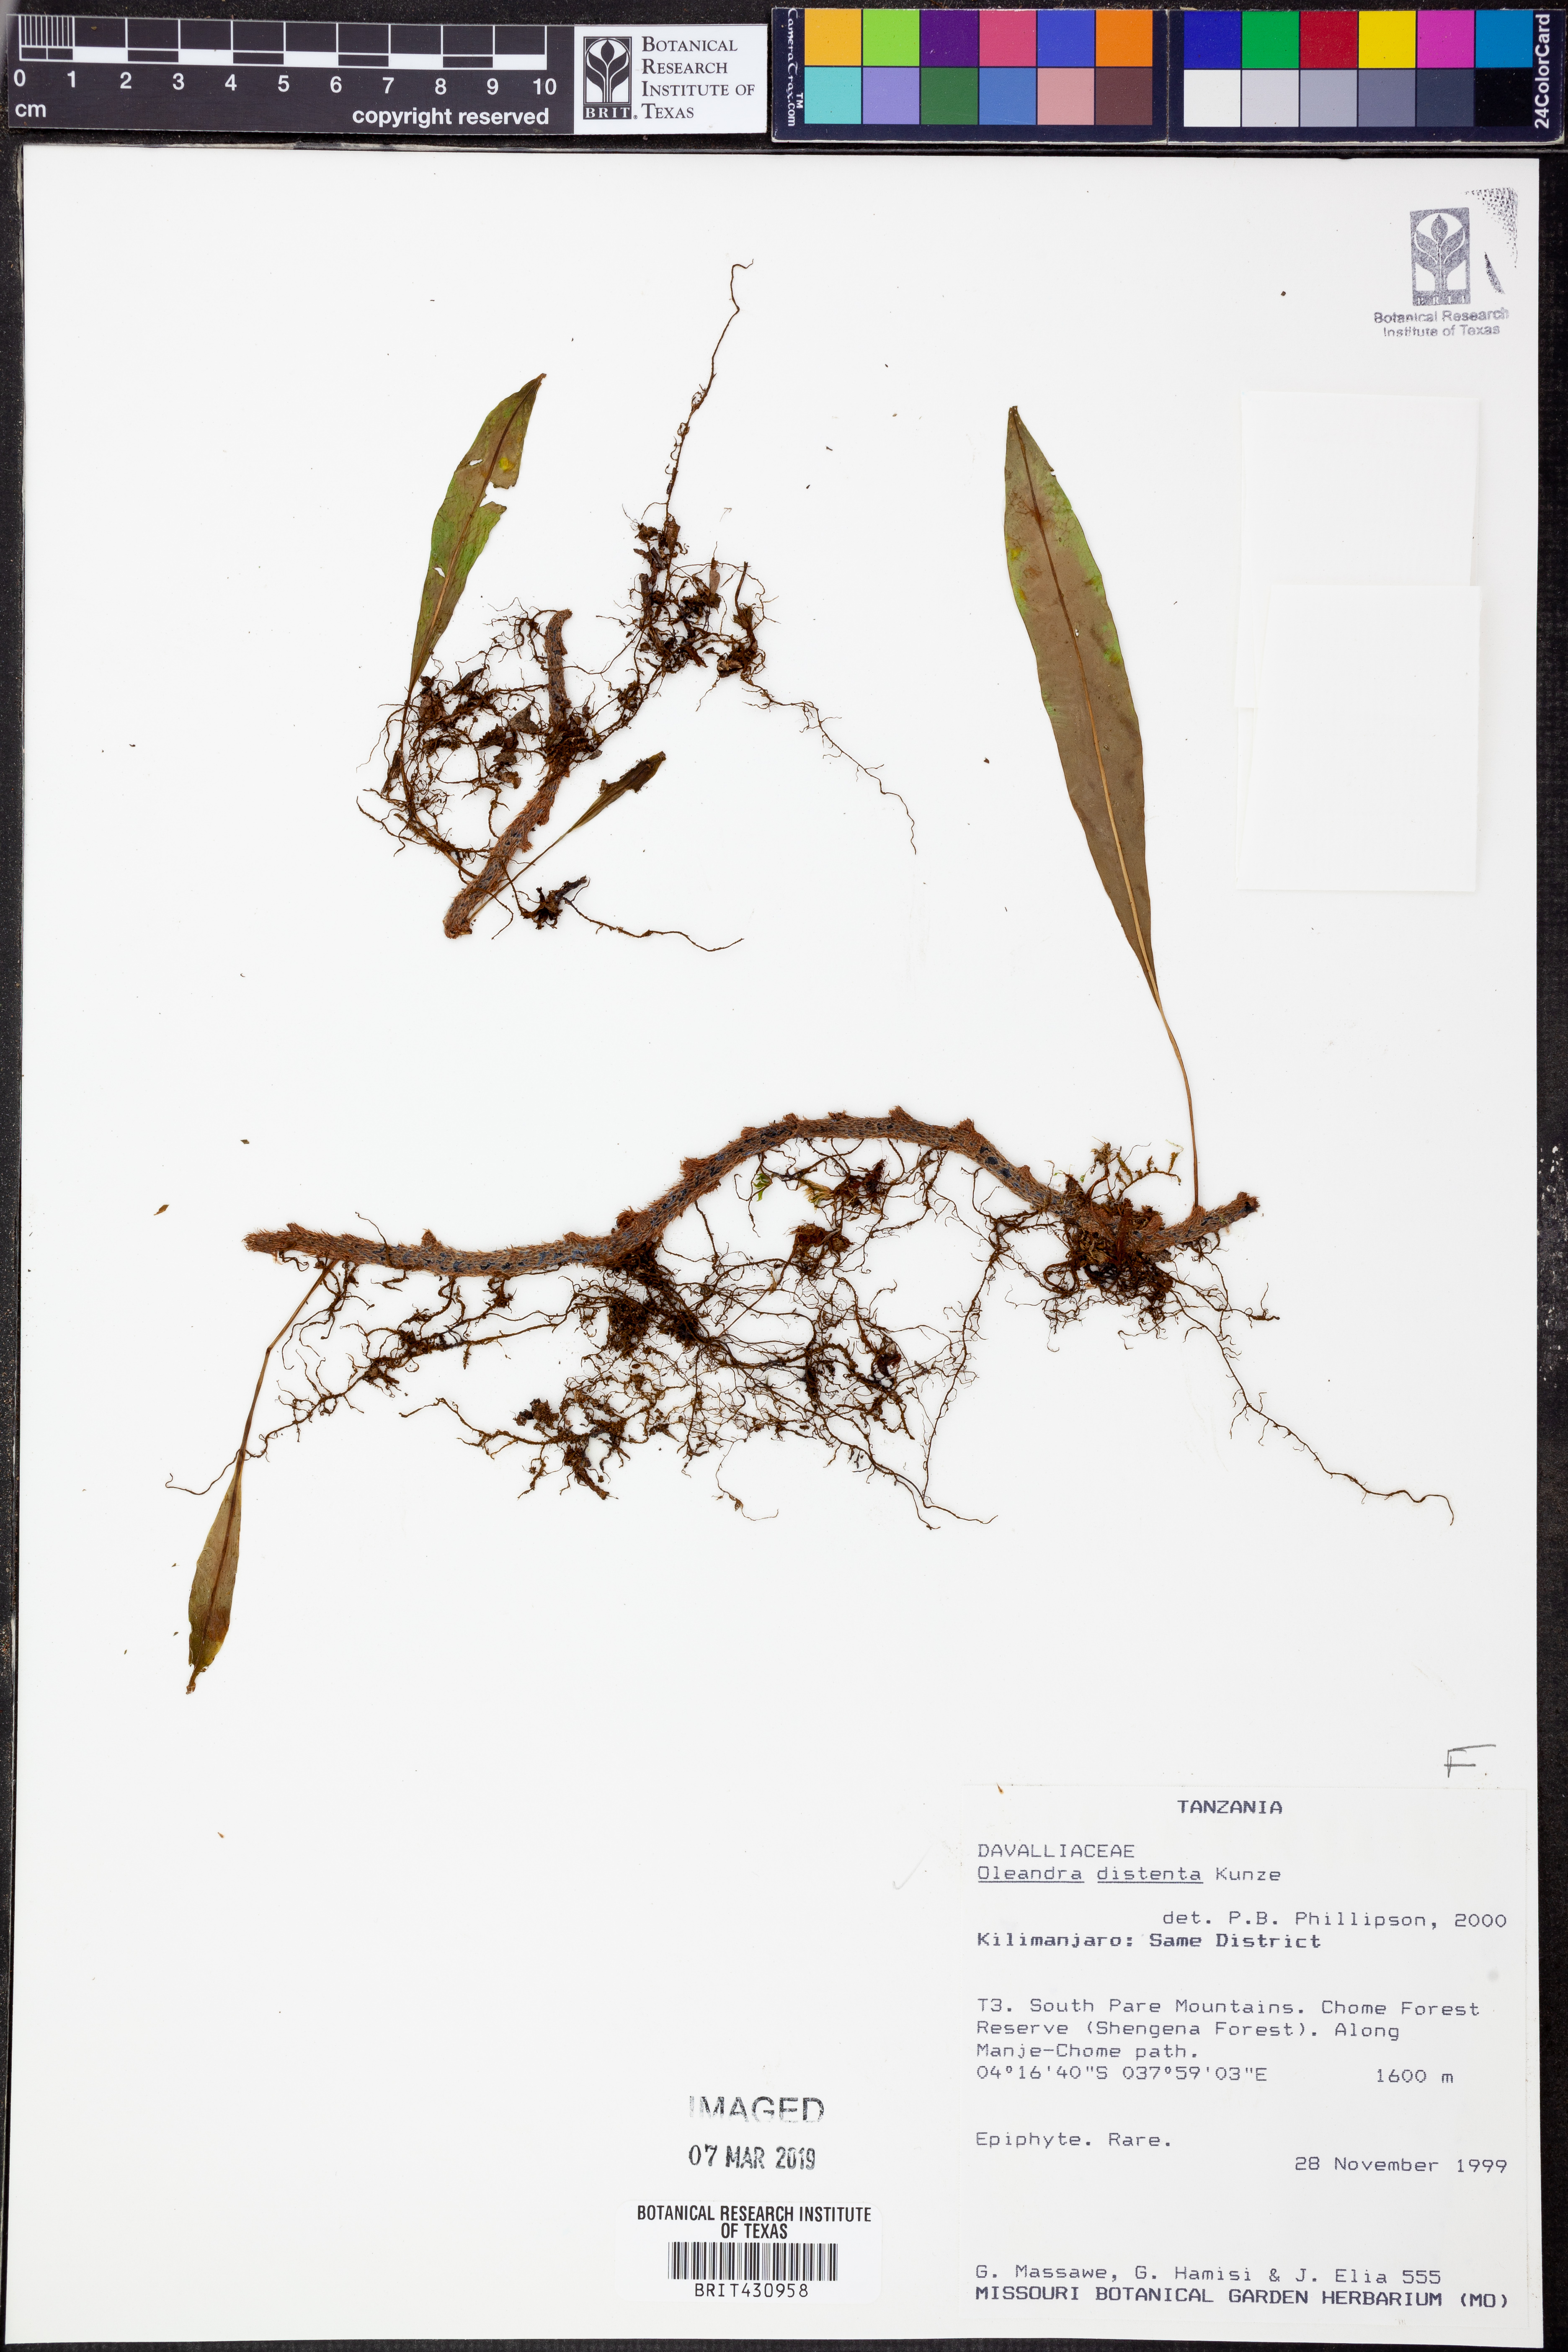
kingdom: Plantae
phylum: Tracheophyta
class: Polypodiopsida
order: Polypodiales
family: Oleandraceae
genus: Oleandra
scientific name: Oleandra distenta
